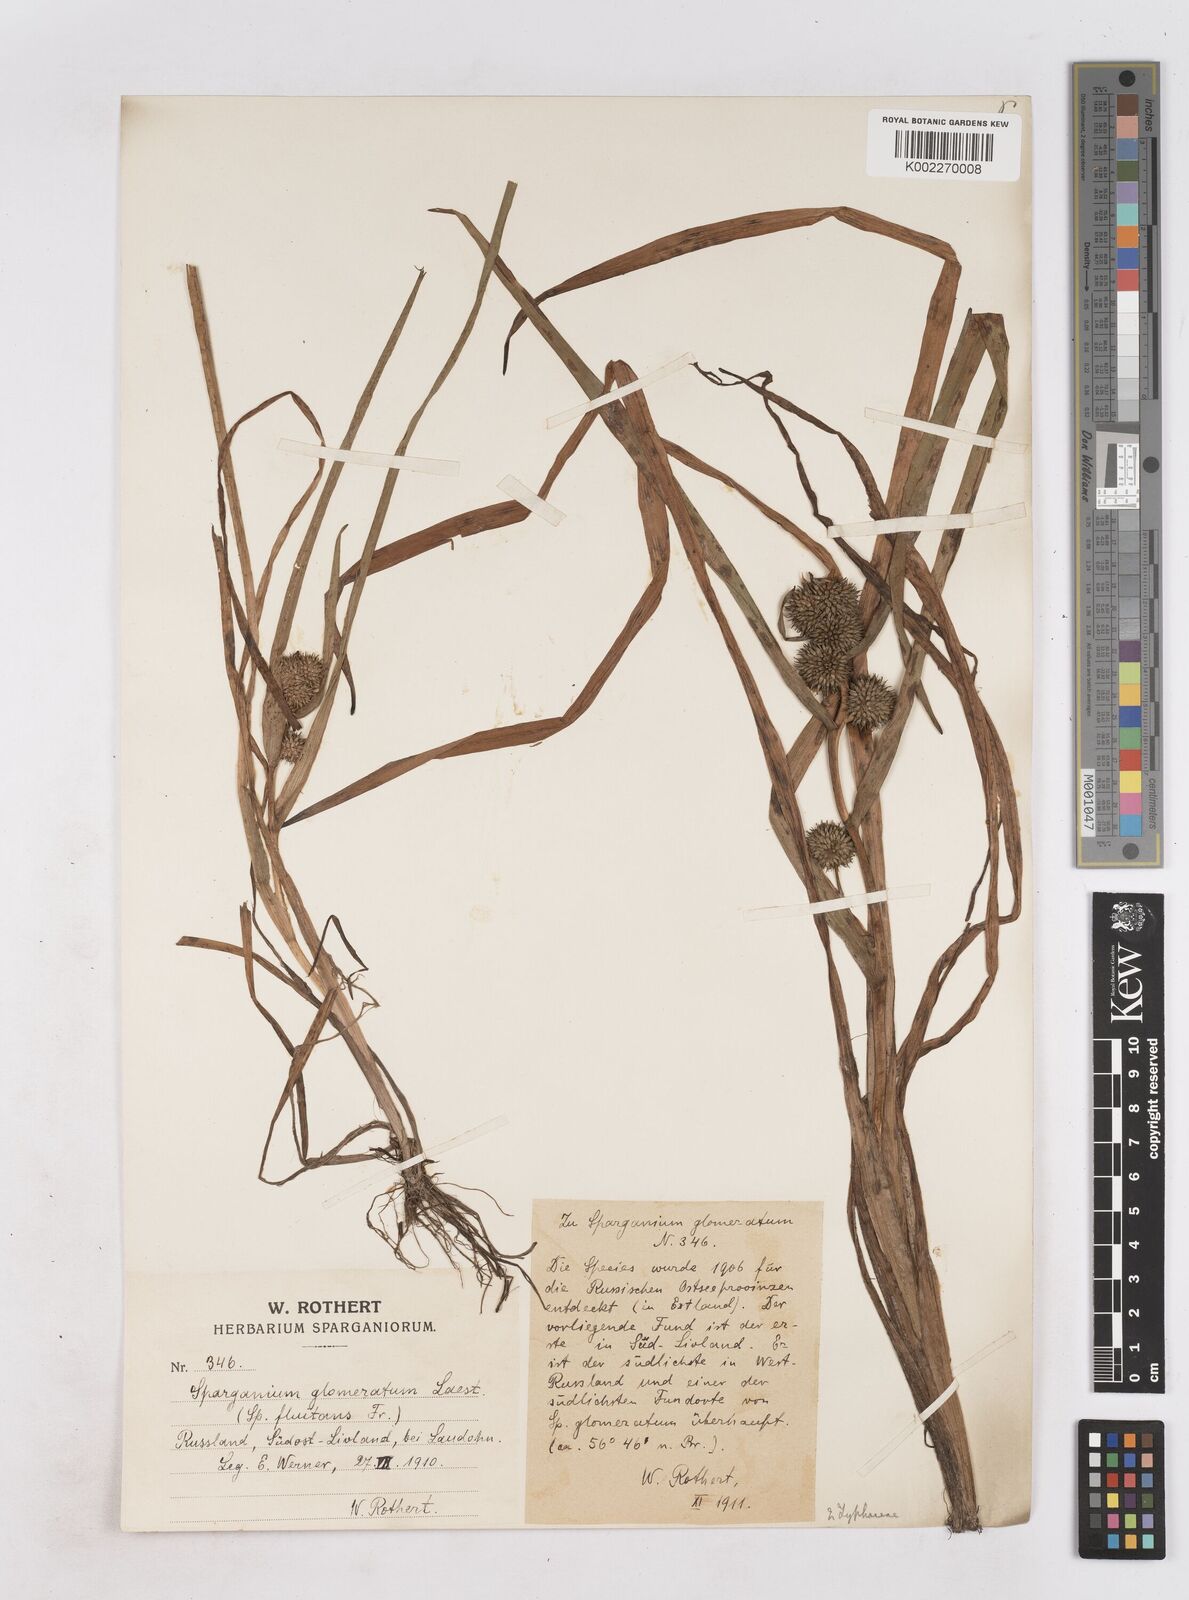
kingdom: Plantae
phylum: Tracheophyta
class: Liliopsida
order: Poales
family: Typhaceae
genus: Sparganium
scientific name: Sparganium angustifolium
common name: Floating bur-reed
